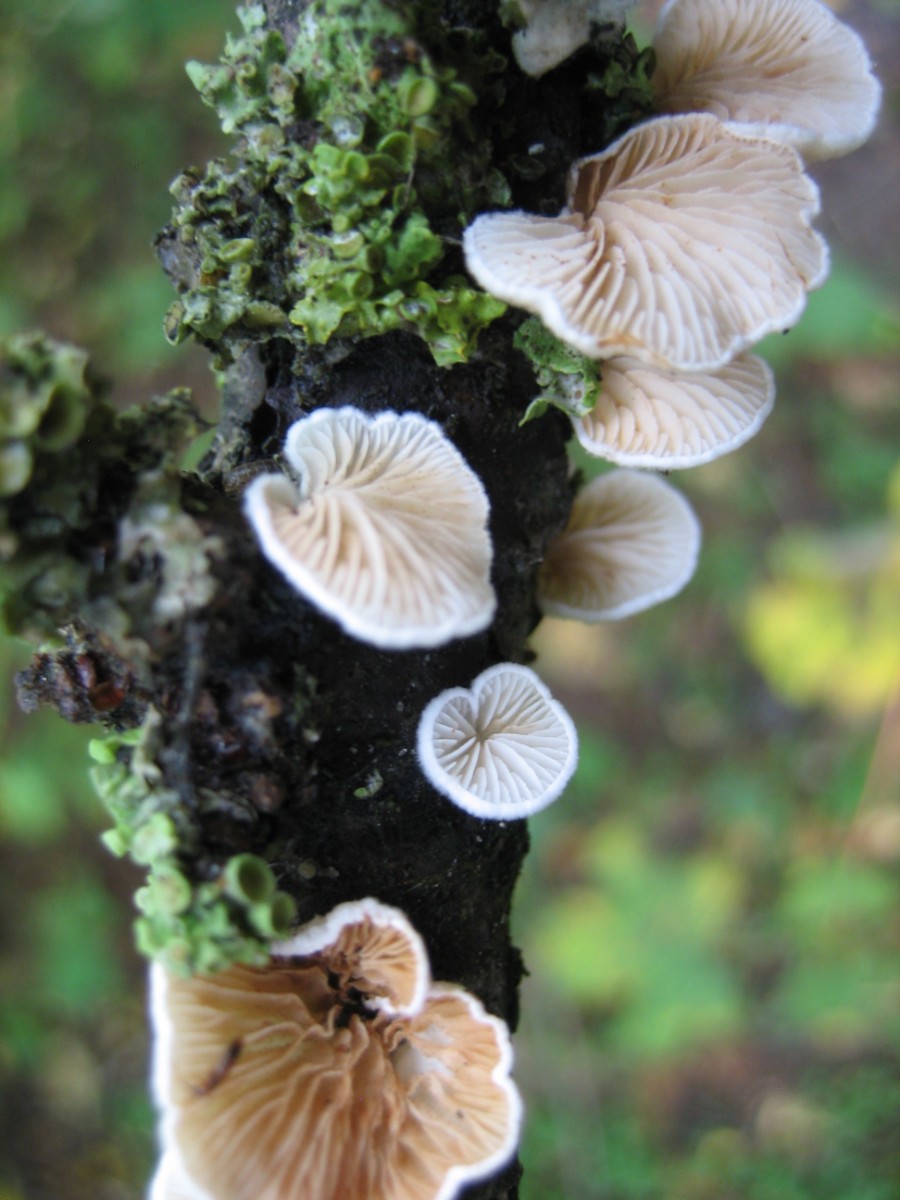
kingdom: Fungi
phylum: Basidiomycota
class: Agaricomycetes
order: Agaricales
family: Crepidotaceae
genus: Crepidotus
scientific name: Crepidotus
